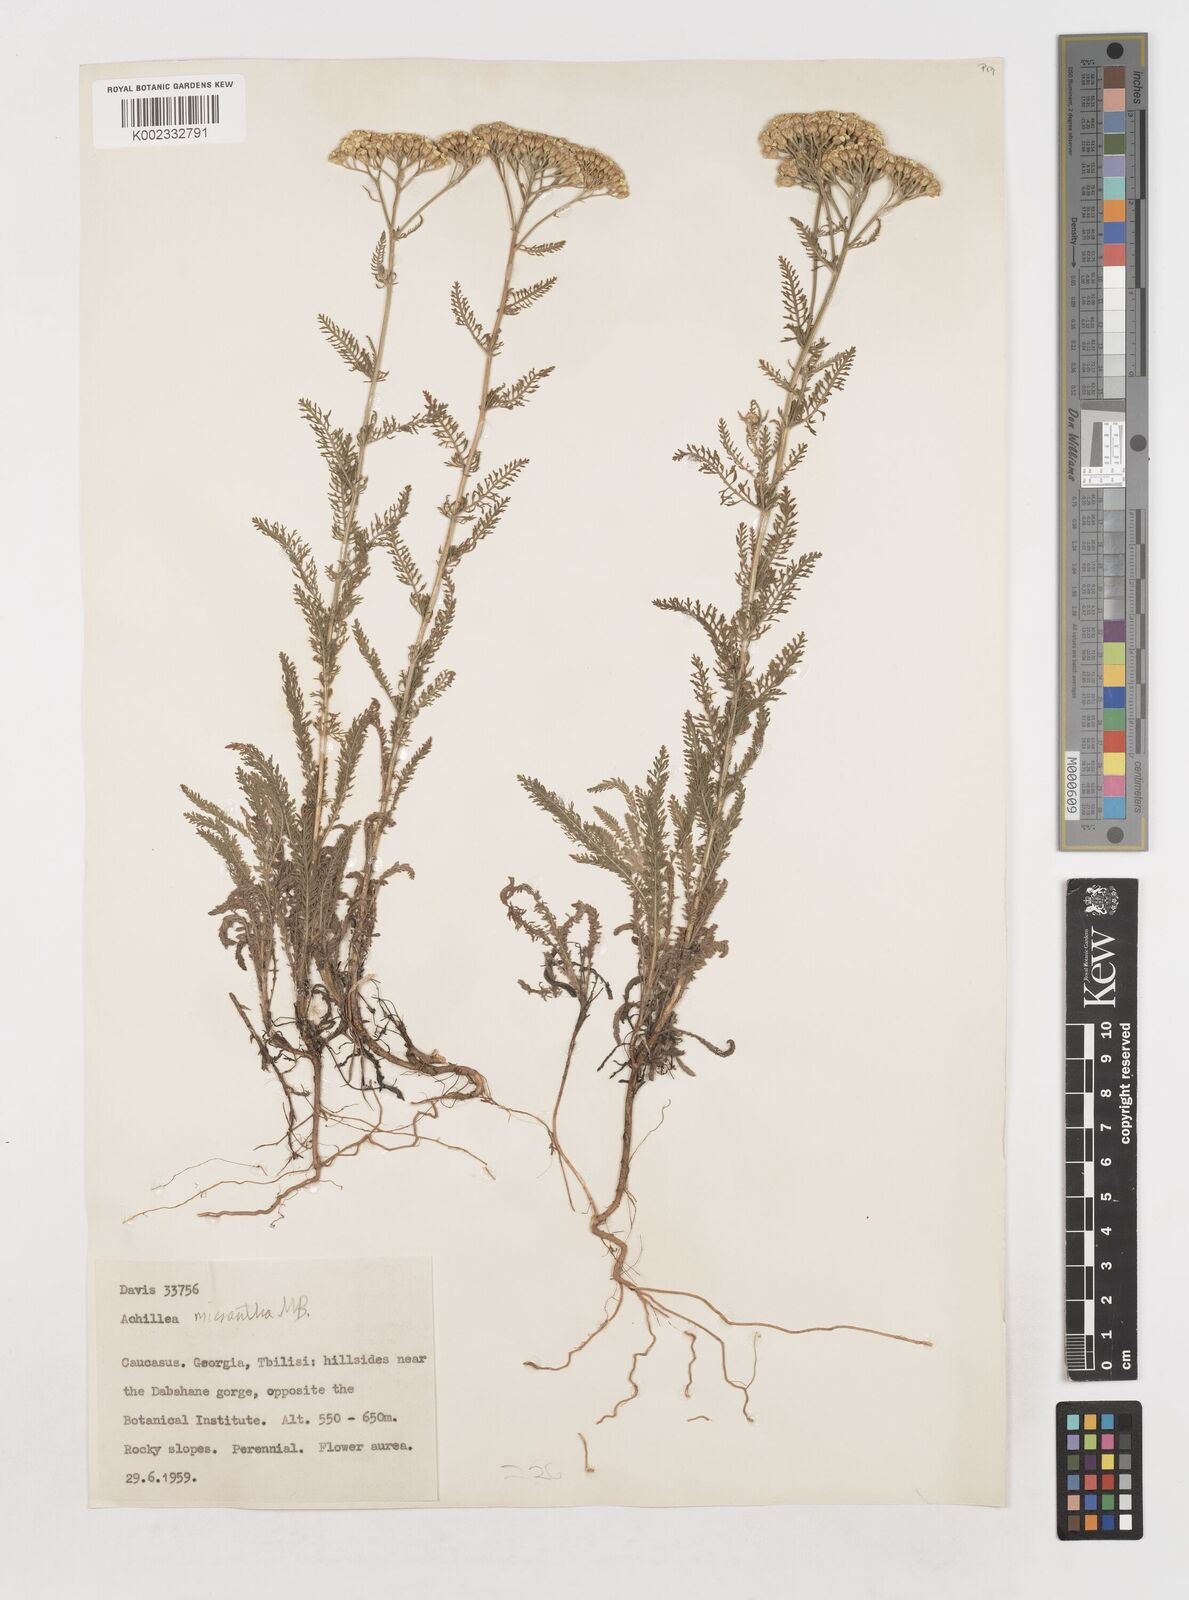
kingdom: Plantae
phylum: Tracheophyta
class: Magnoliopsida
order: Asterales
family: Asteraceae
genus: Achillea
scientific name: Achillea arabica
